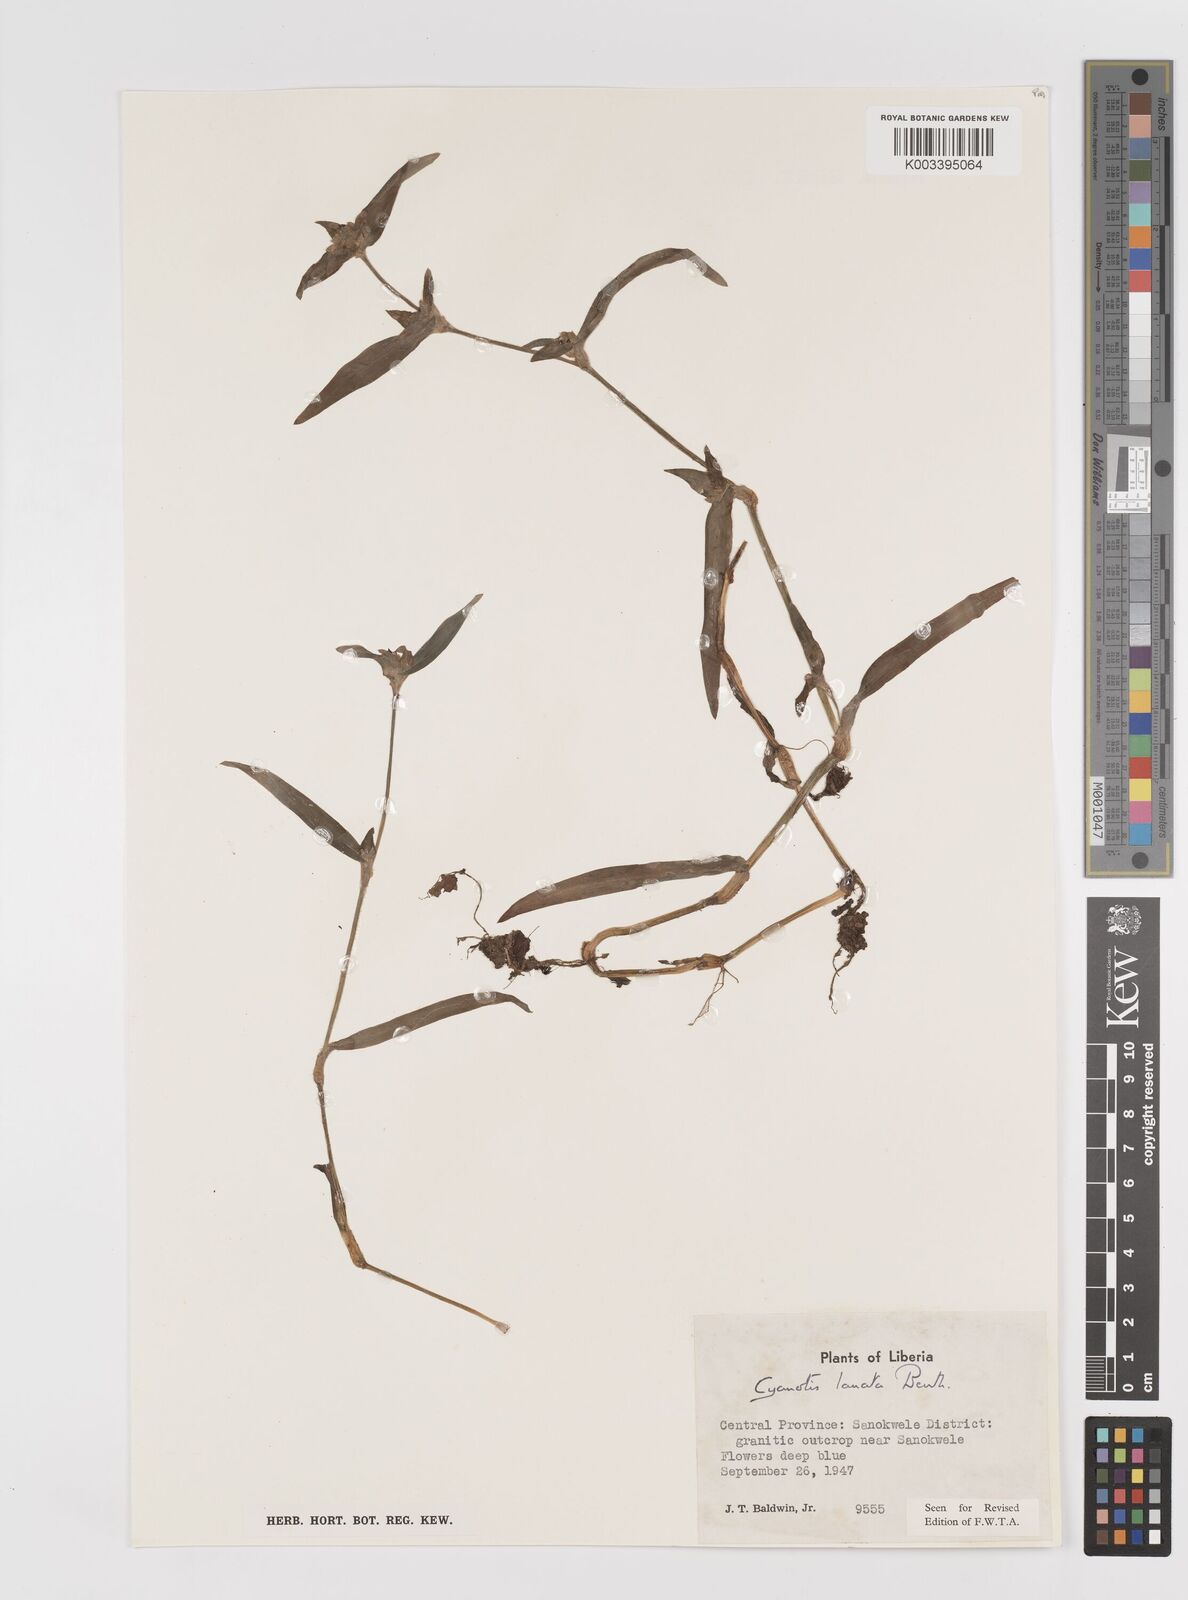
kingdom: Plantae
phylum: Tracheophyta
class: Liliopsida
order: Commelinales
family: Commelinaceae
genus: Cyanotis
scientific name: Cyanotis lanata
